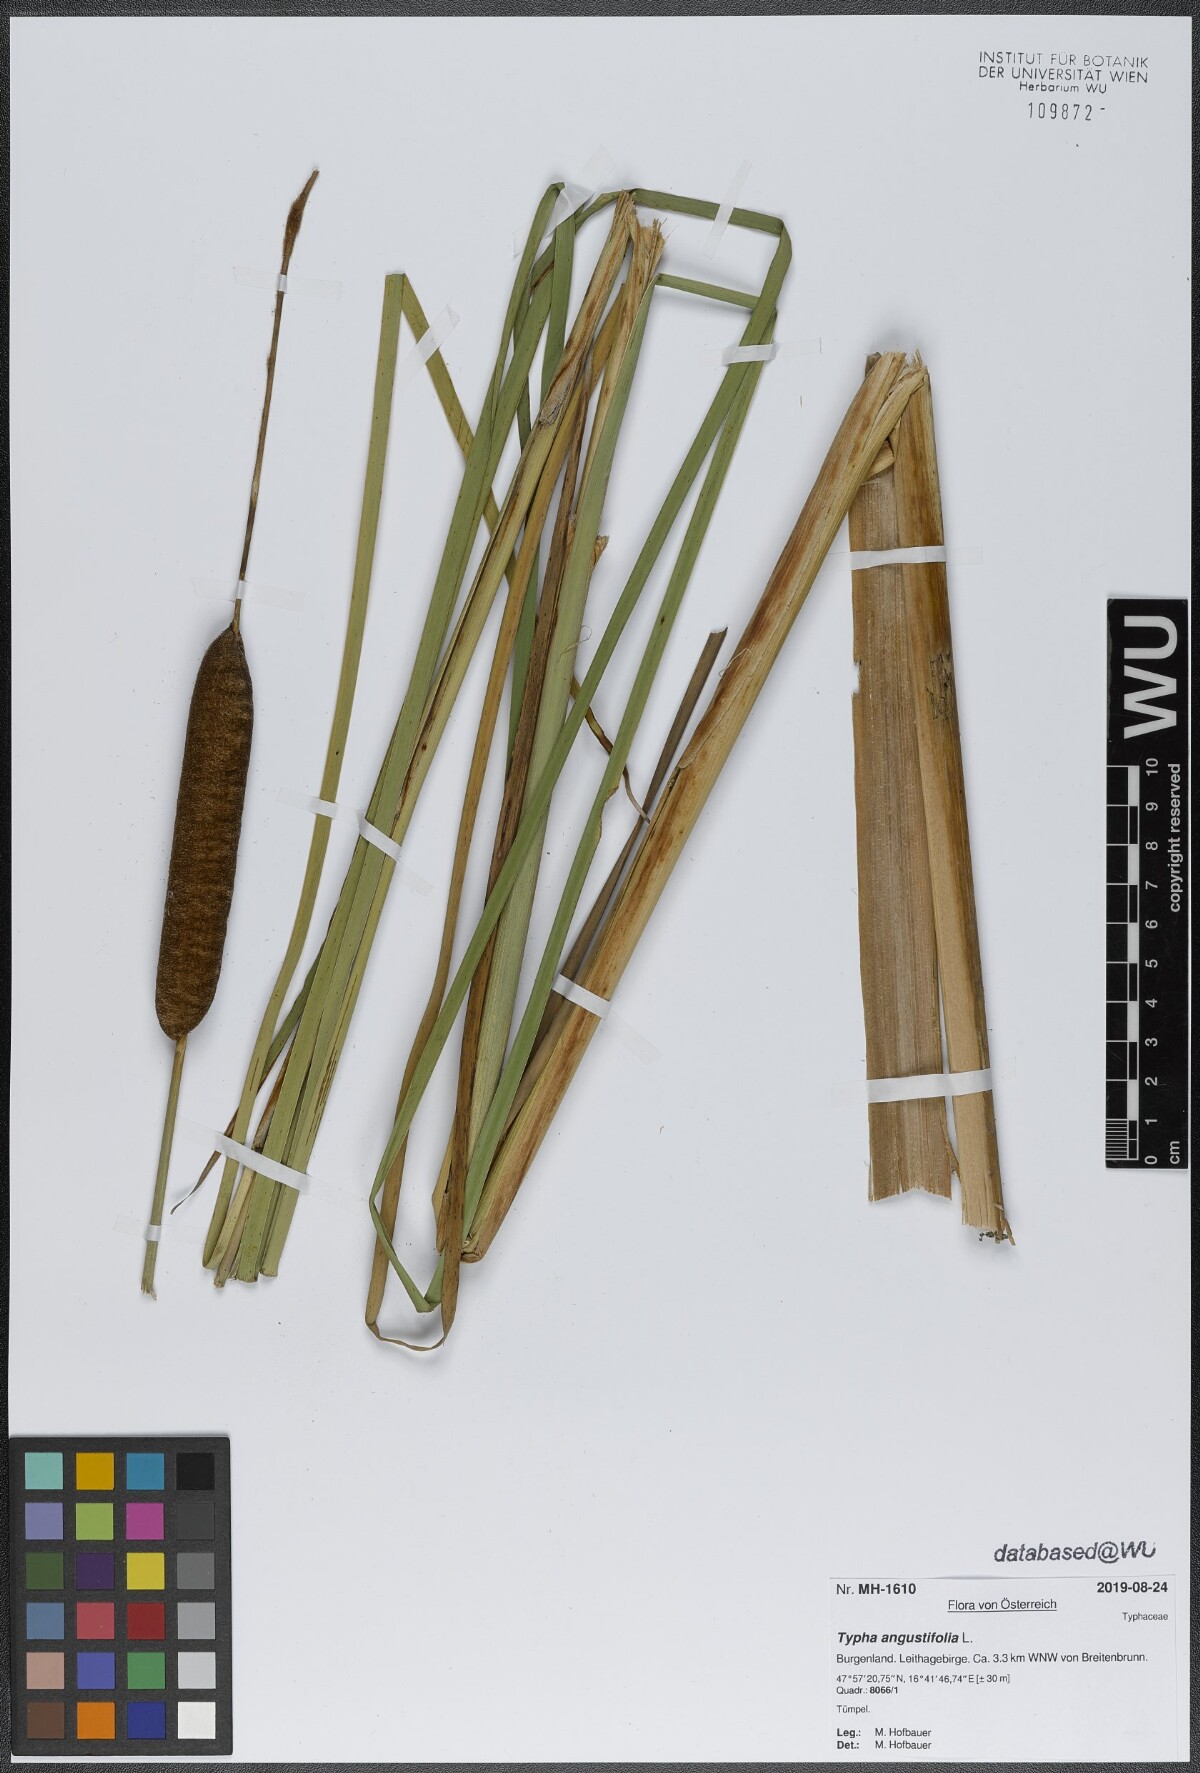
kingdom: Plantae
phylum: Tracheophyta
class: Liliopsida
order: Poales
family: Typhaceae
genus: Typha
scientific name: Typha angustifolia
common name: Lesser bulrush
